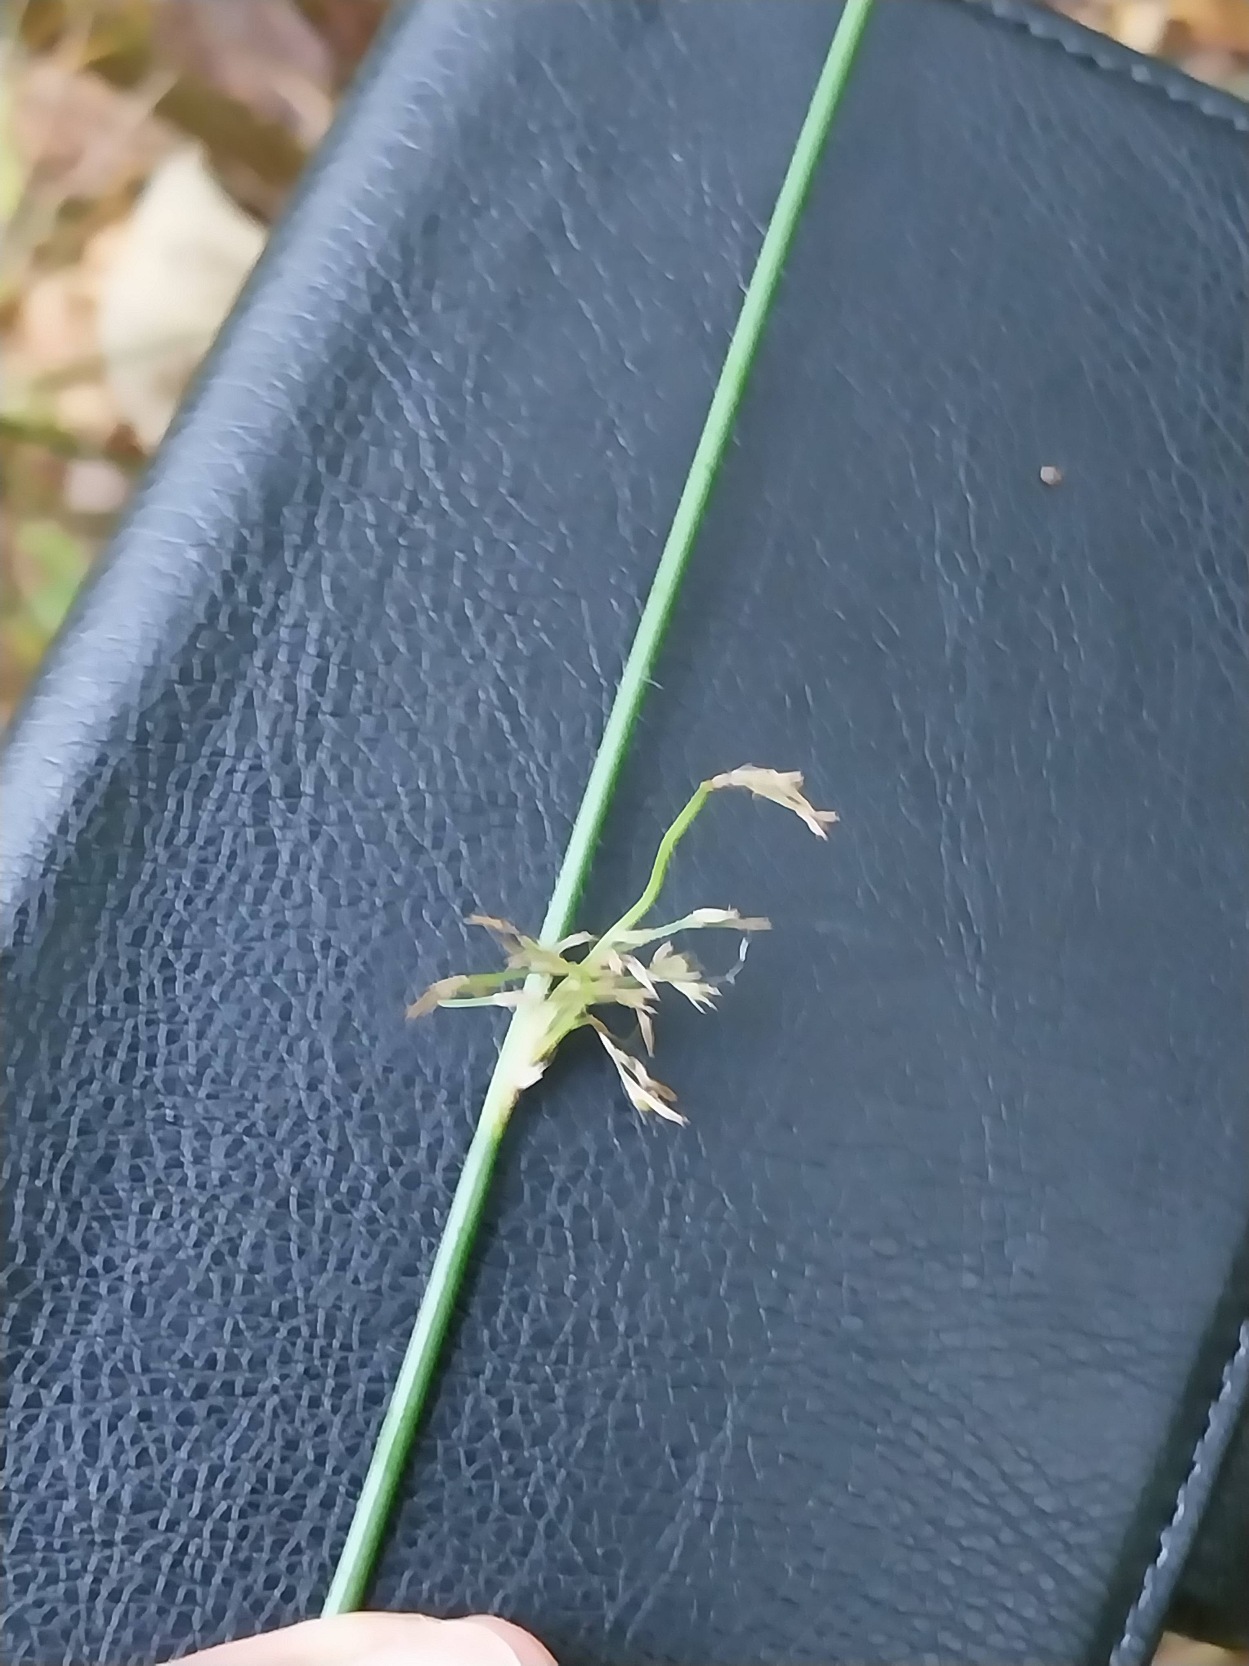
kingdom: Plantae
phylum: Tracheophyta
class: Liliopsida
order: Poales
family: Juncaceae
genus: Juncus
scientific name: Juncus effusus
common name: Lyse-siv
